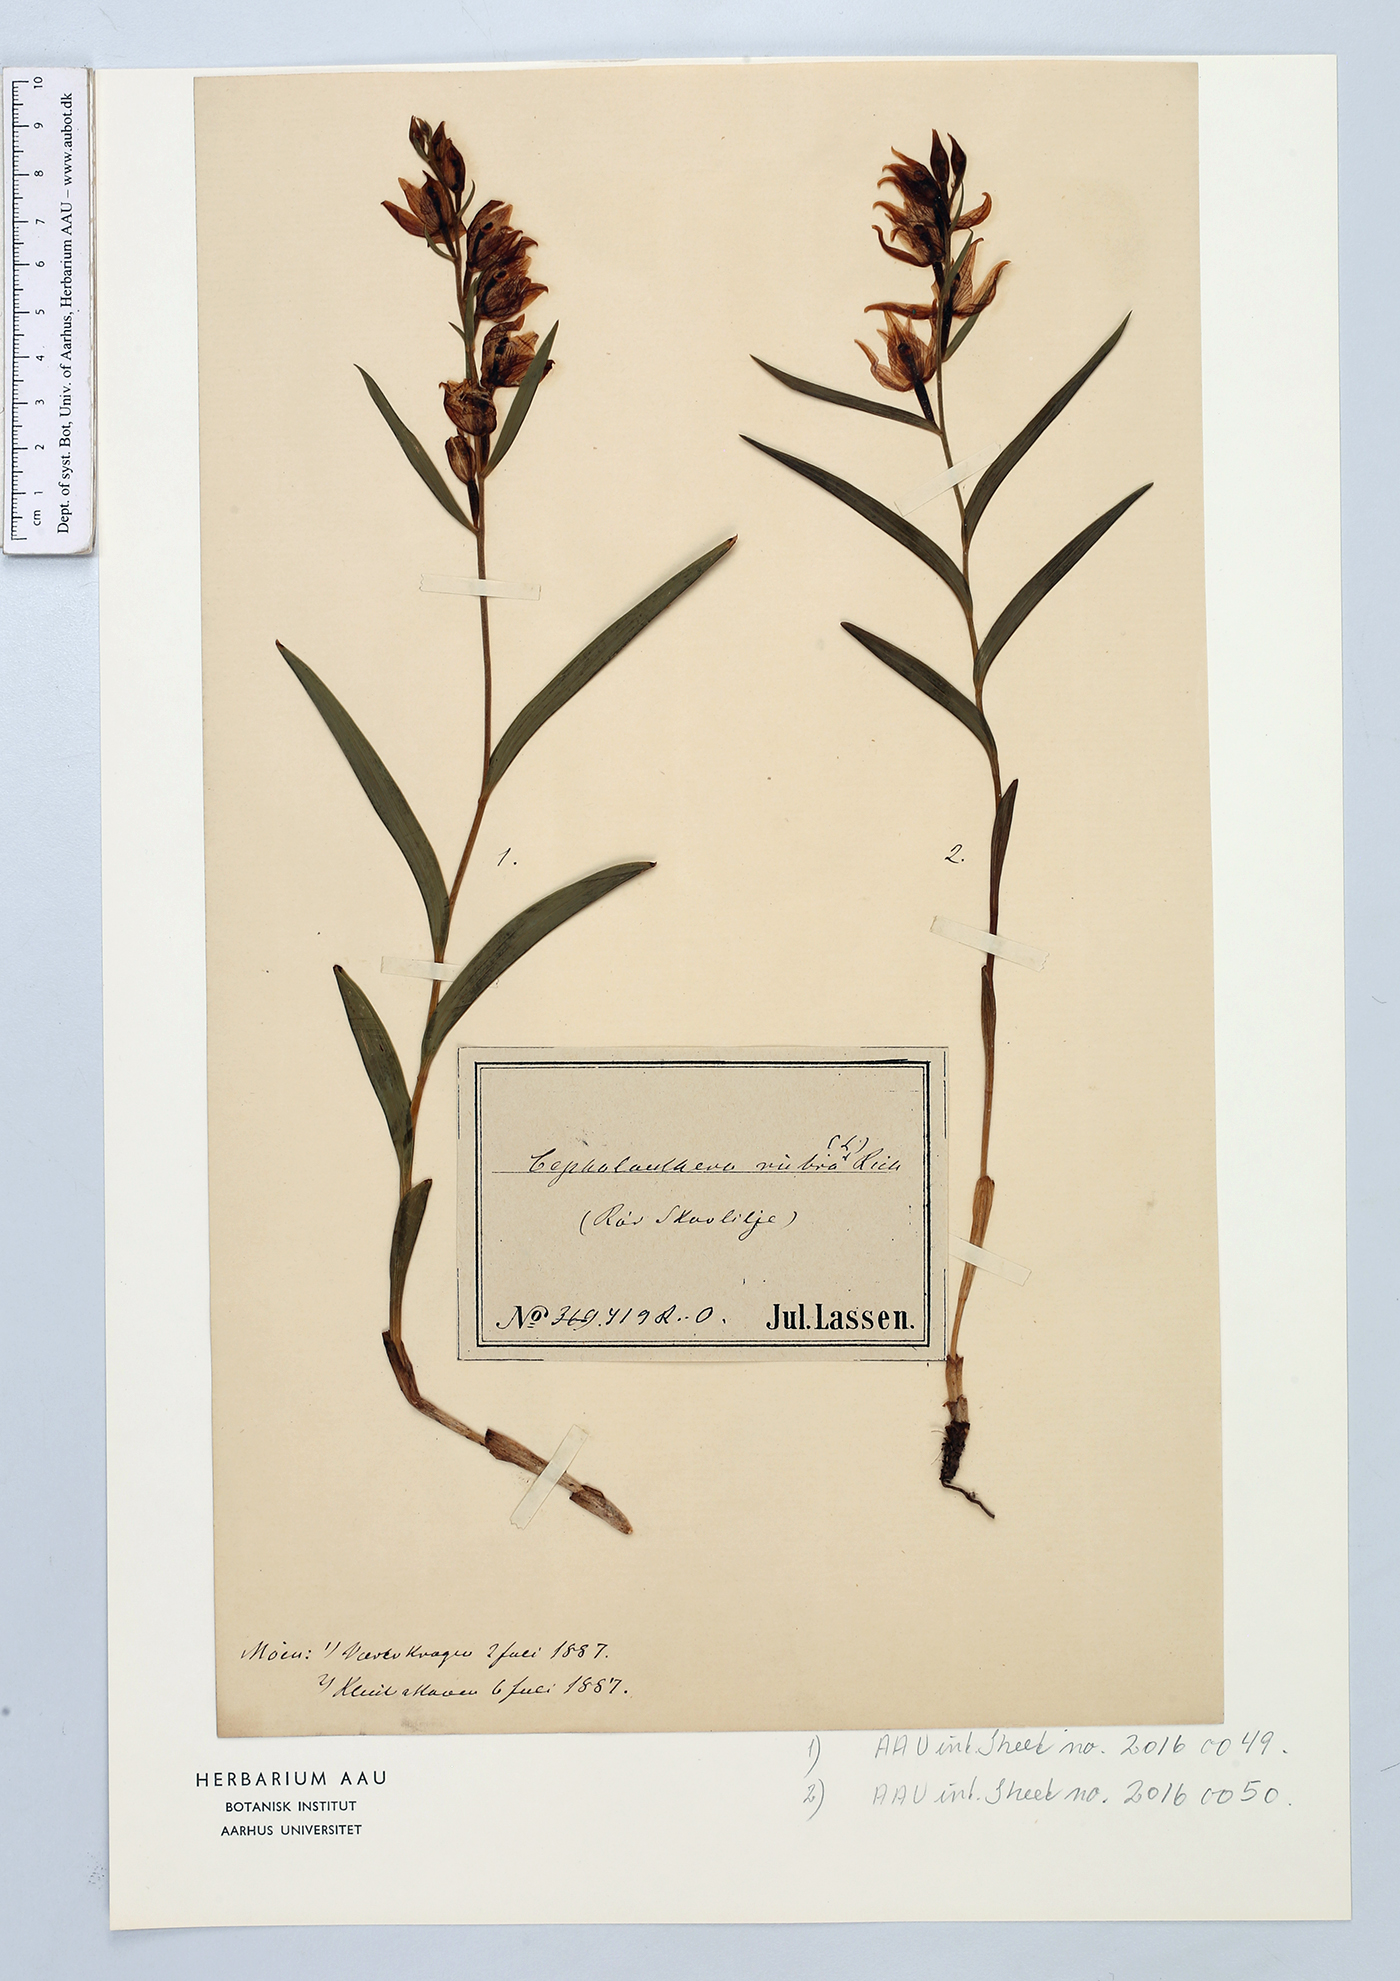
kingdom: Plantae
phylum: Tracheophyta
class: Liliopsida
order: Asparagales
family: Orchidaceae
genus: Cephalanthera
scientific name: Cephalanthera rubra
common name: Red helleborine
